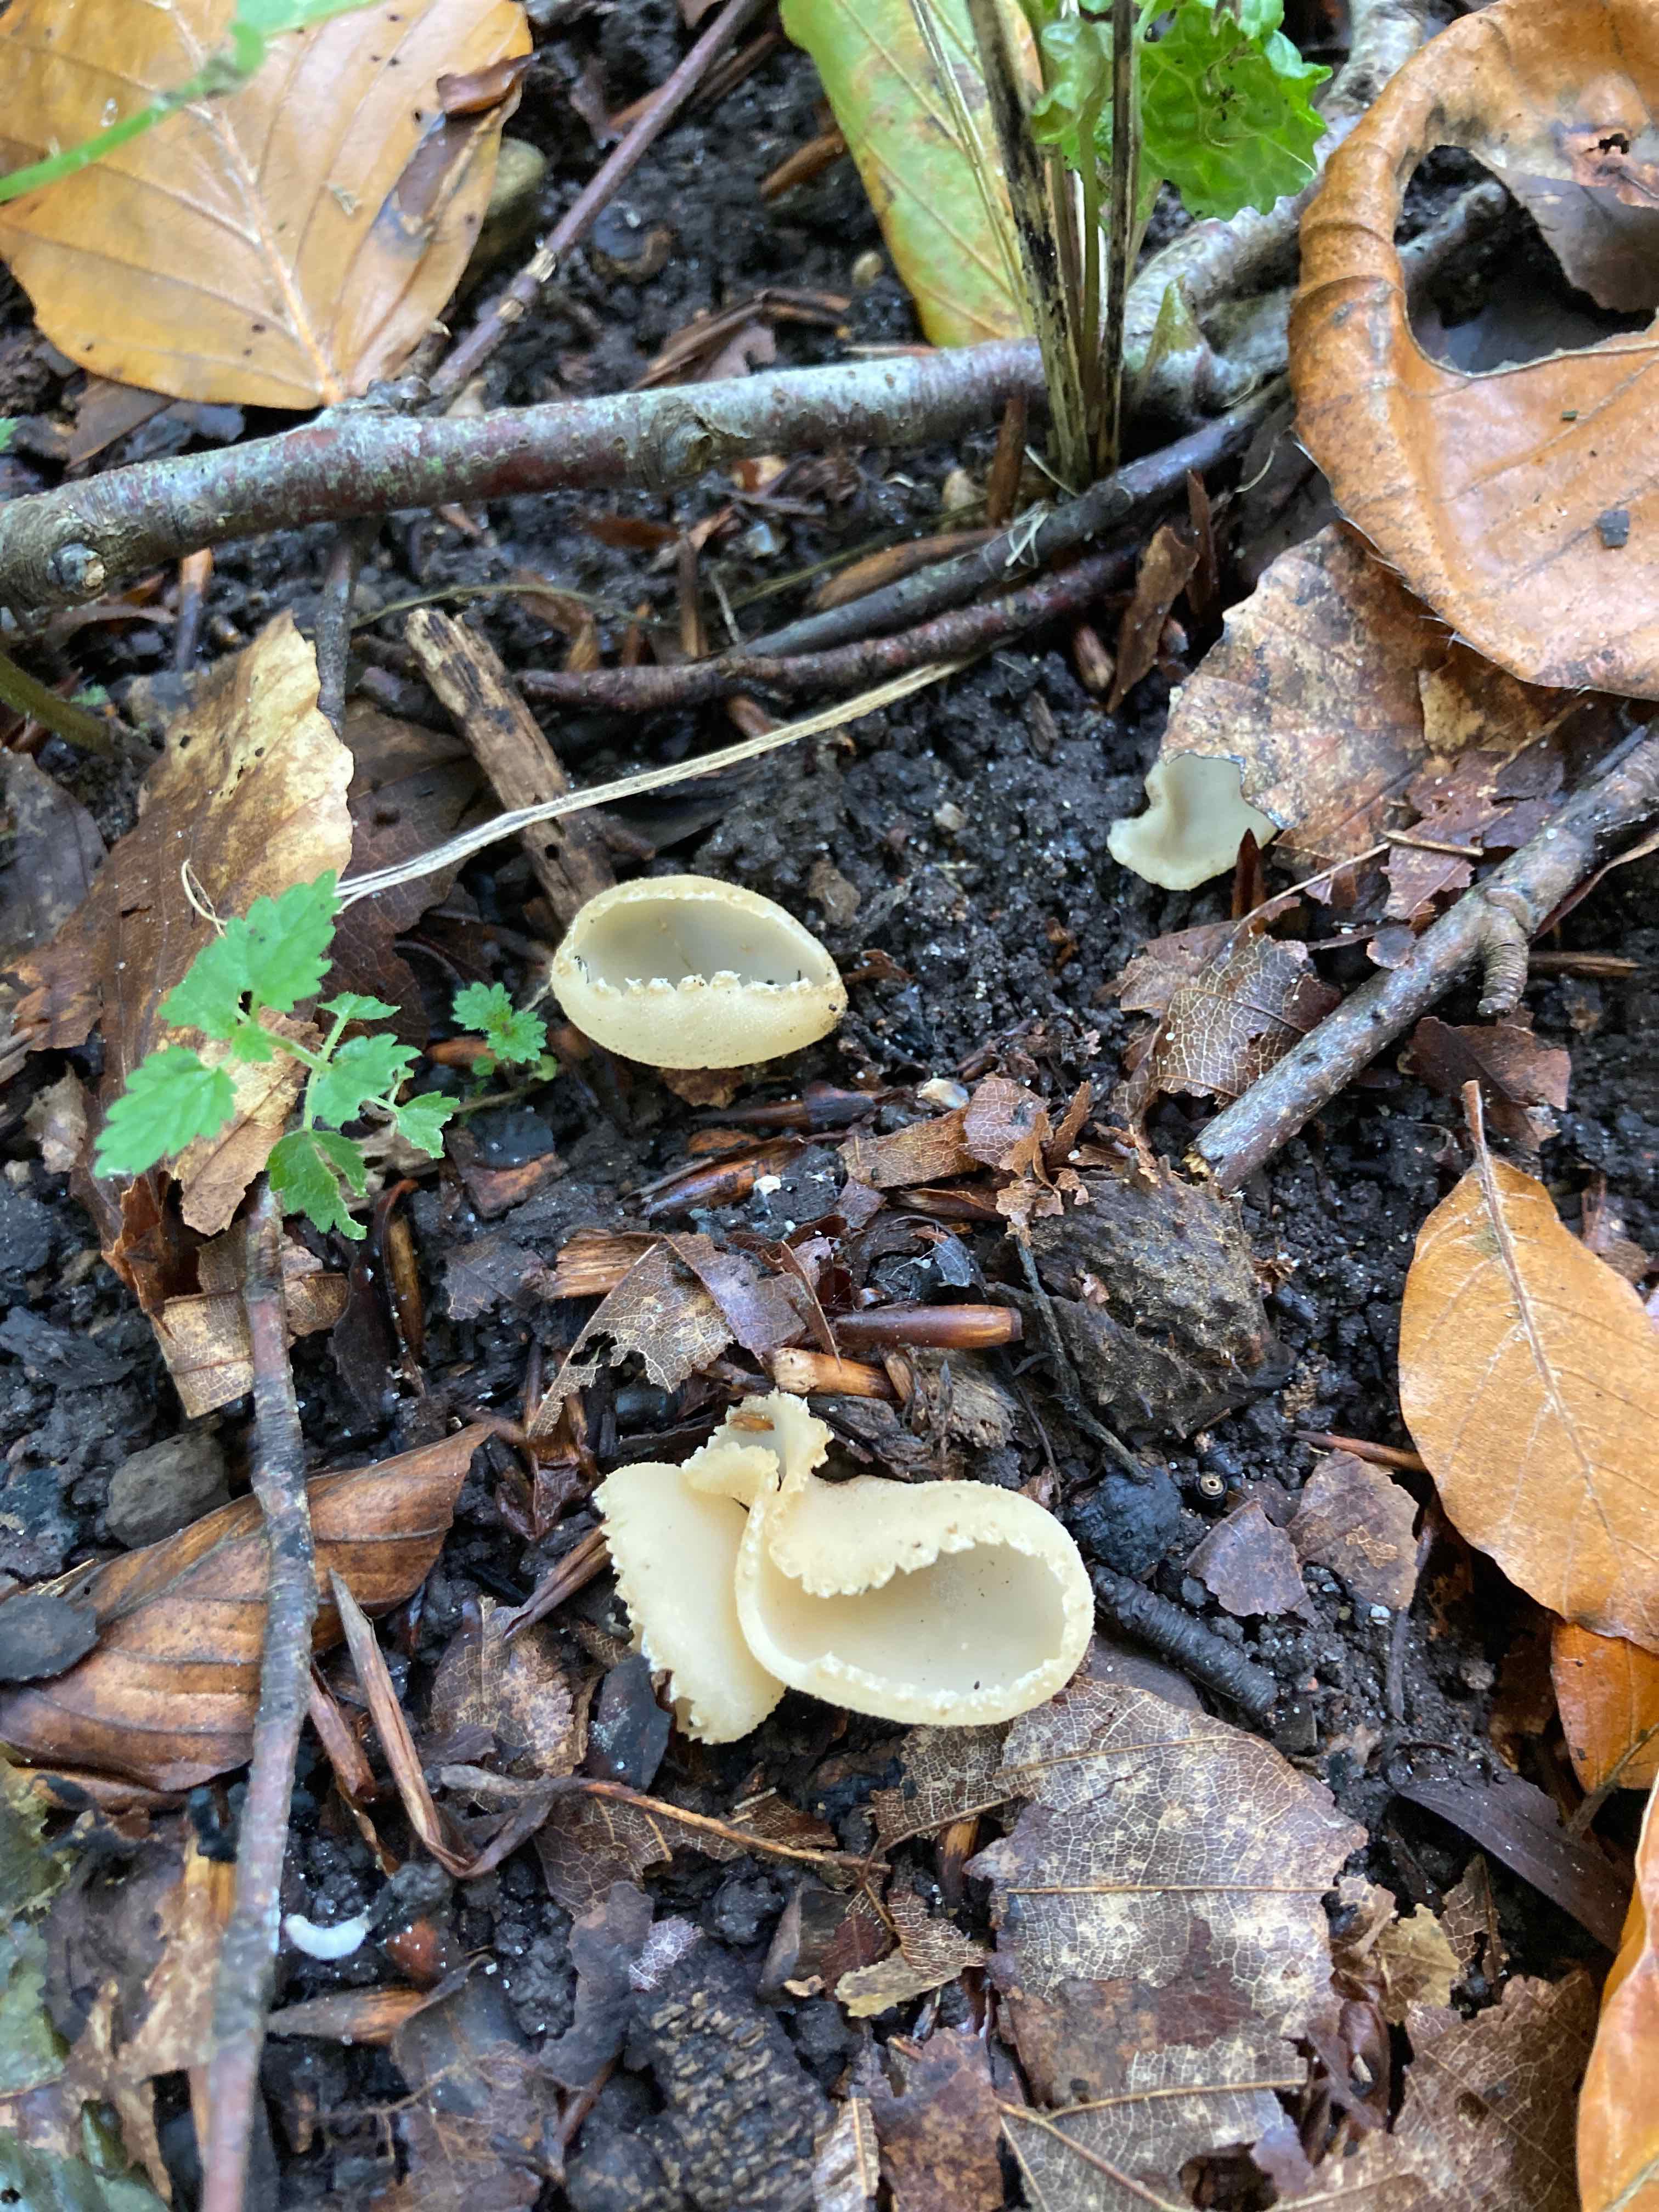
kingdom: Fungi
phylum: Ascomycota
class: Pezizomycetes
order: Pezizales
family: Pyronemataceae
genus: Tarzetta
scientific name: Tarzetta cupularis
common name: gulbrun pokalbæger
